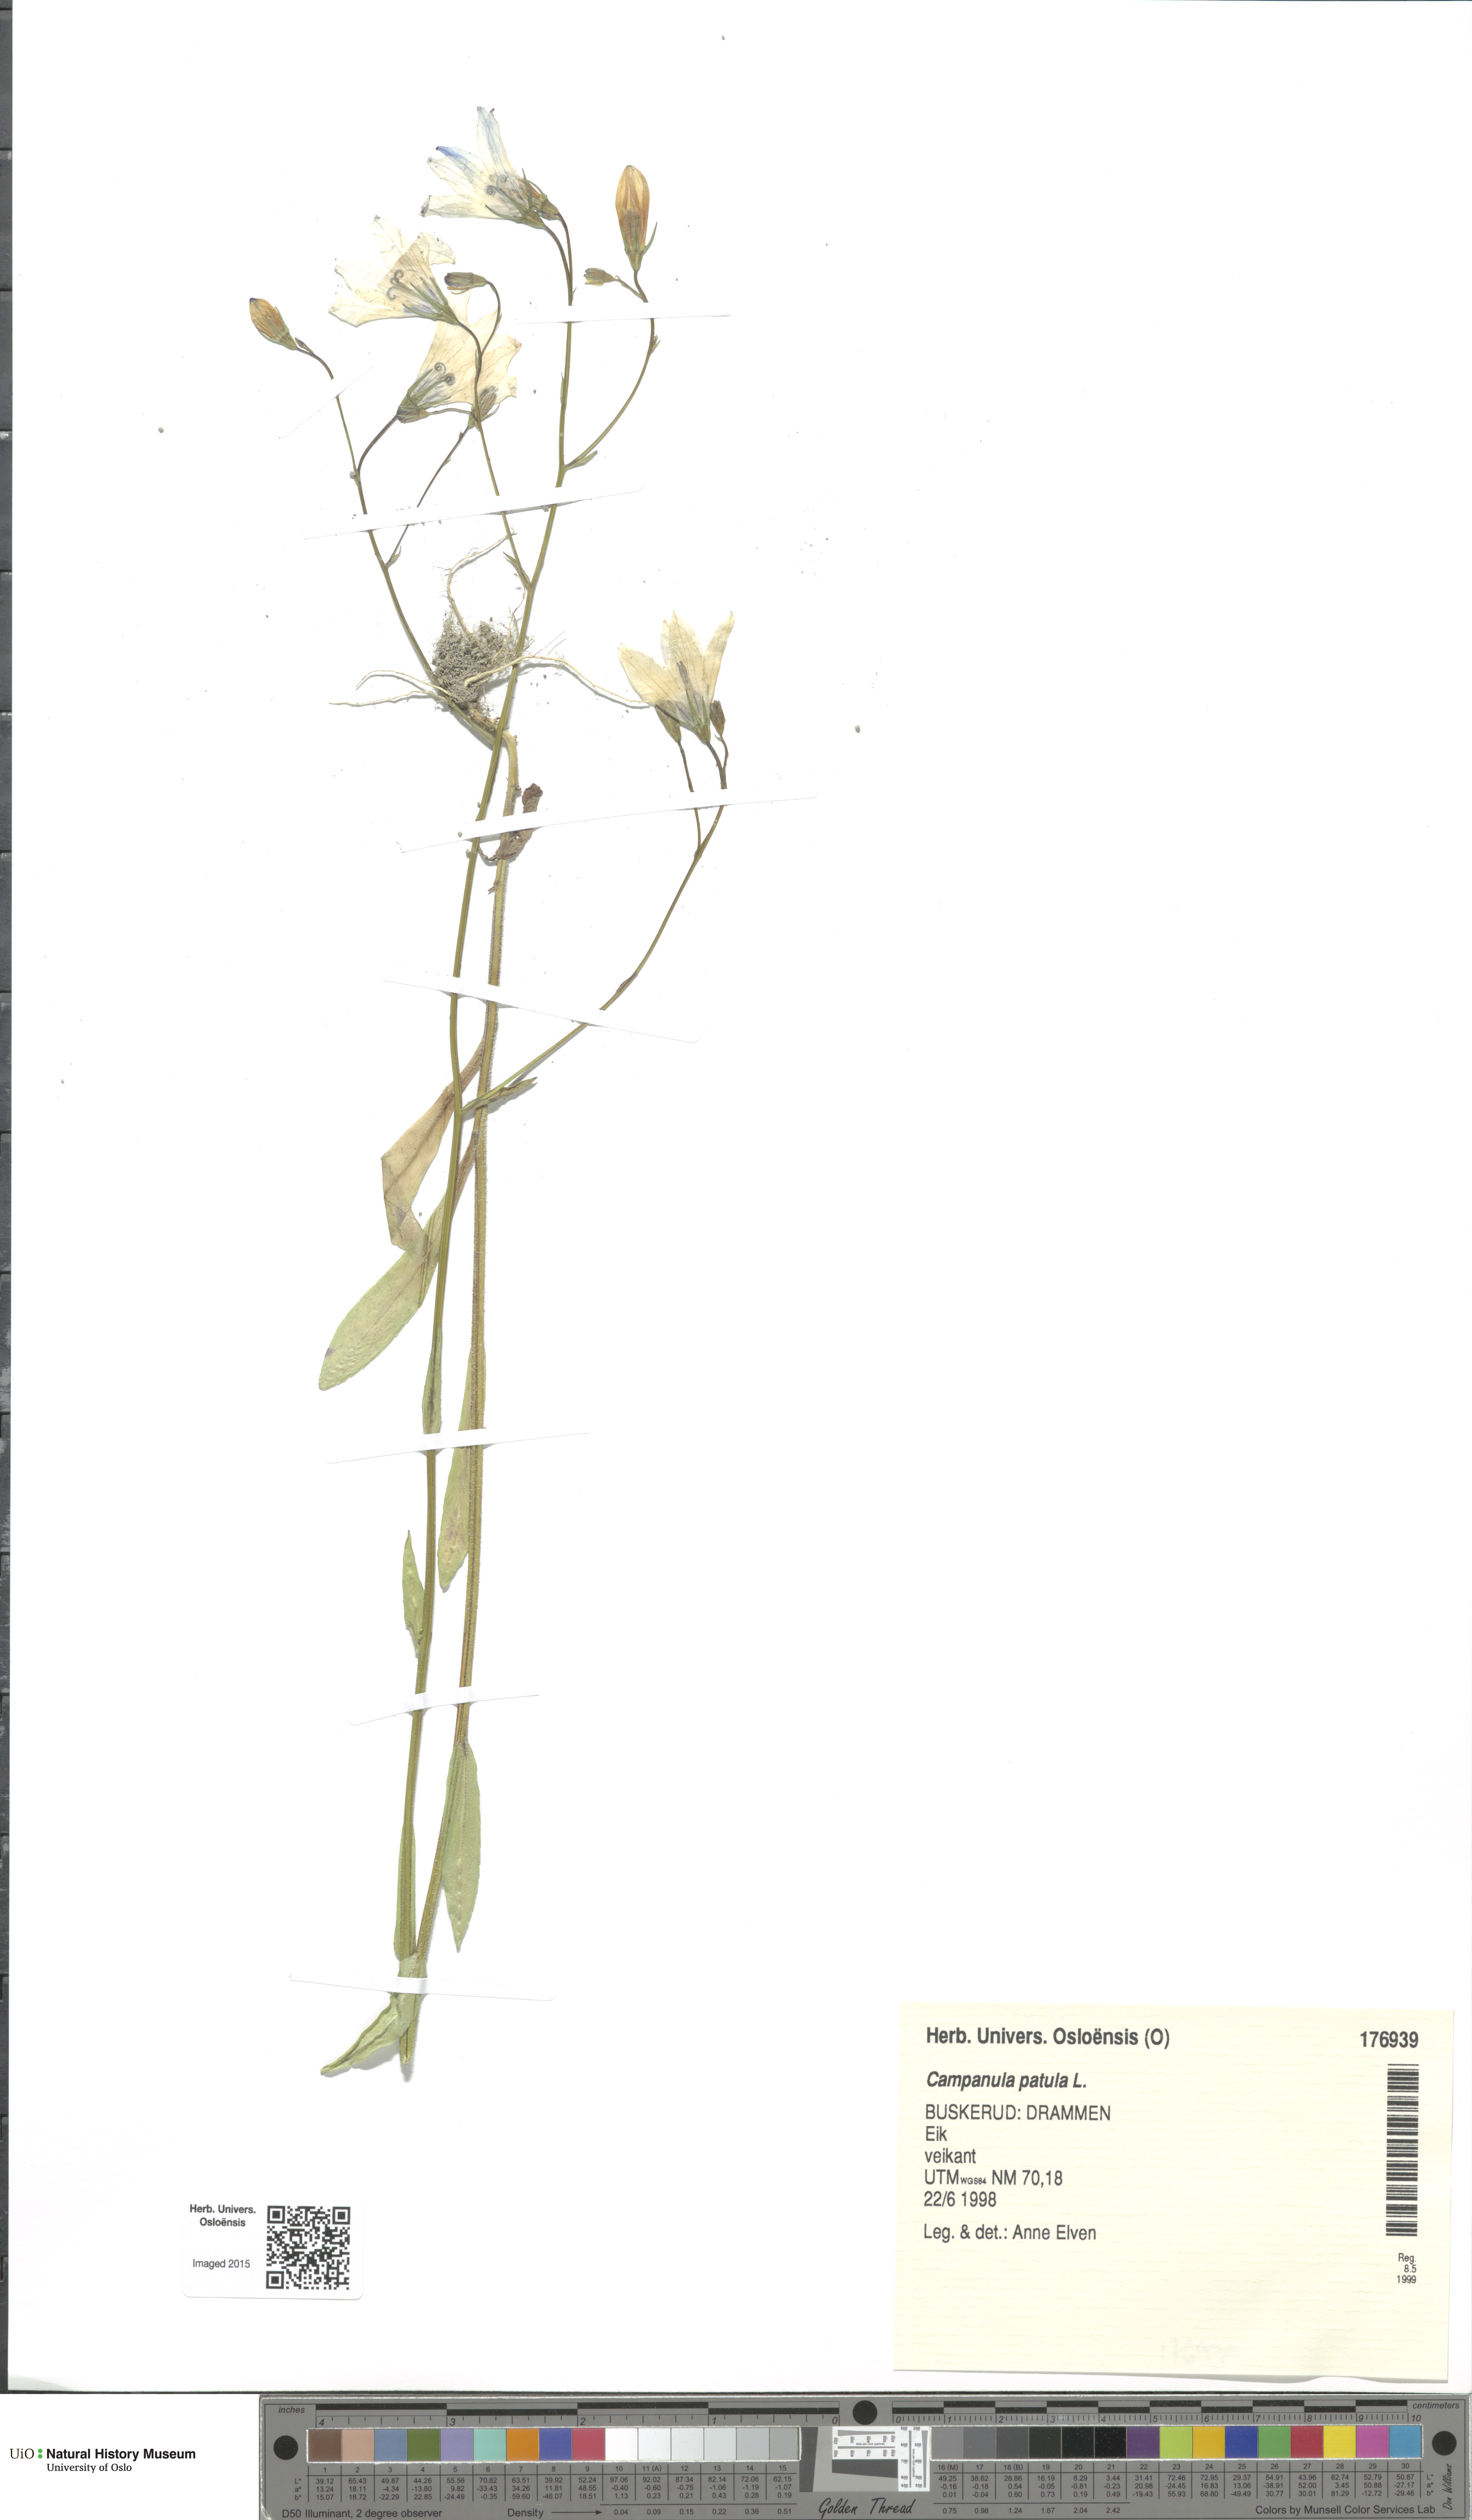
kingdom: Plantae
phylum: Tracheophyta
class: Magnoliopsida
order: Asterales
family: Campanulaceae
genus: Campanula
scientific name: Campanula patula
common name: Spreading bellflower
